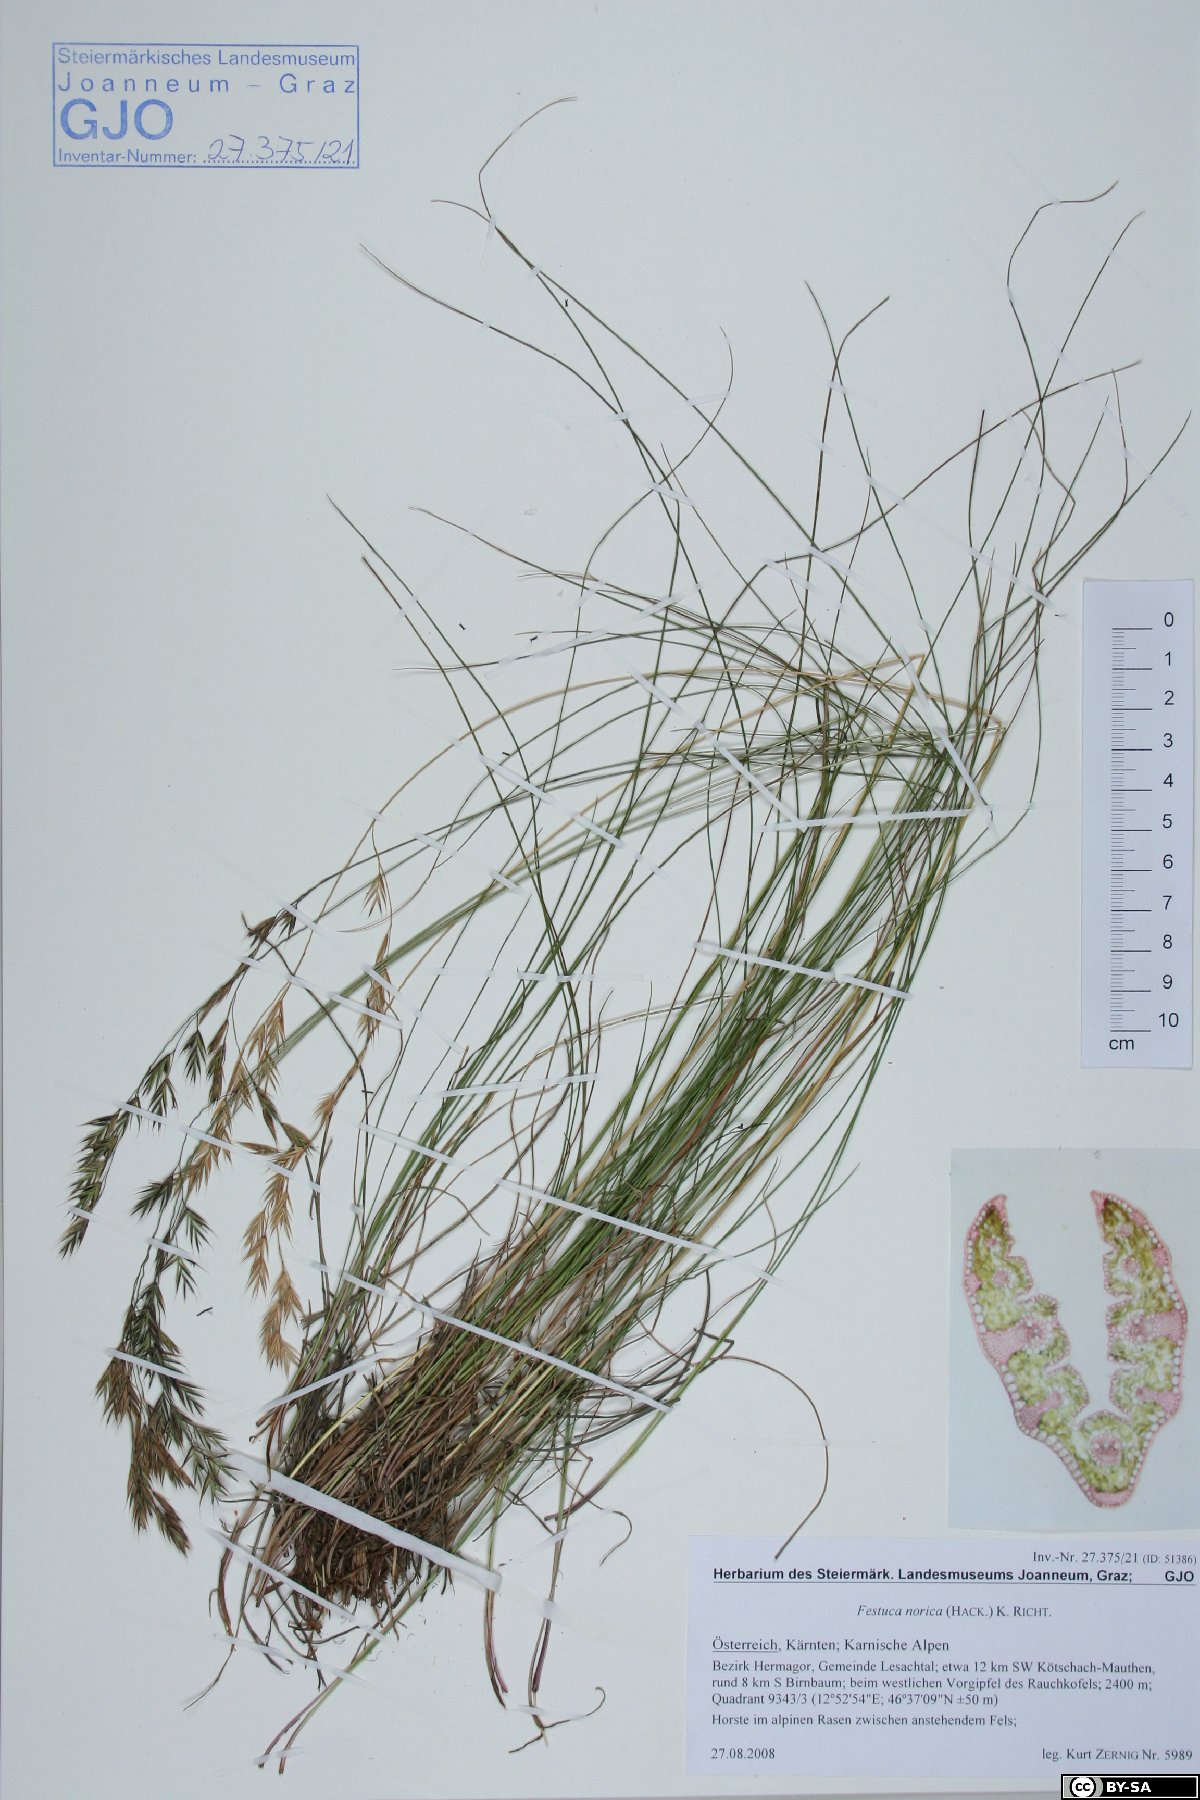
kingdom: Plantae
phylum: Tracheophyta
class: Liliopsida
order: Poales
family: Poaceae
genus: Festuca
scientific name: Festuca norica
